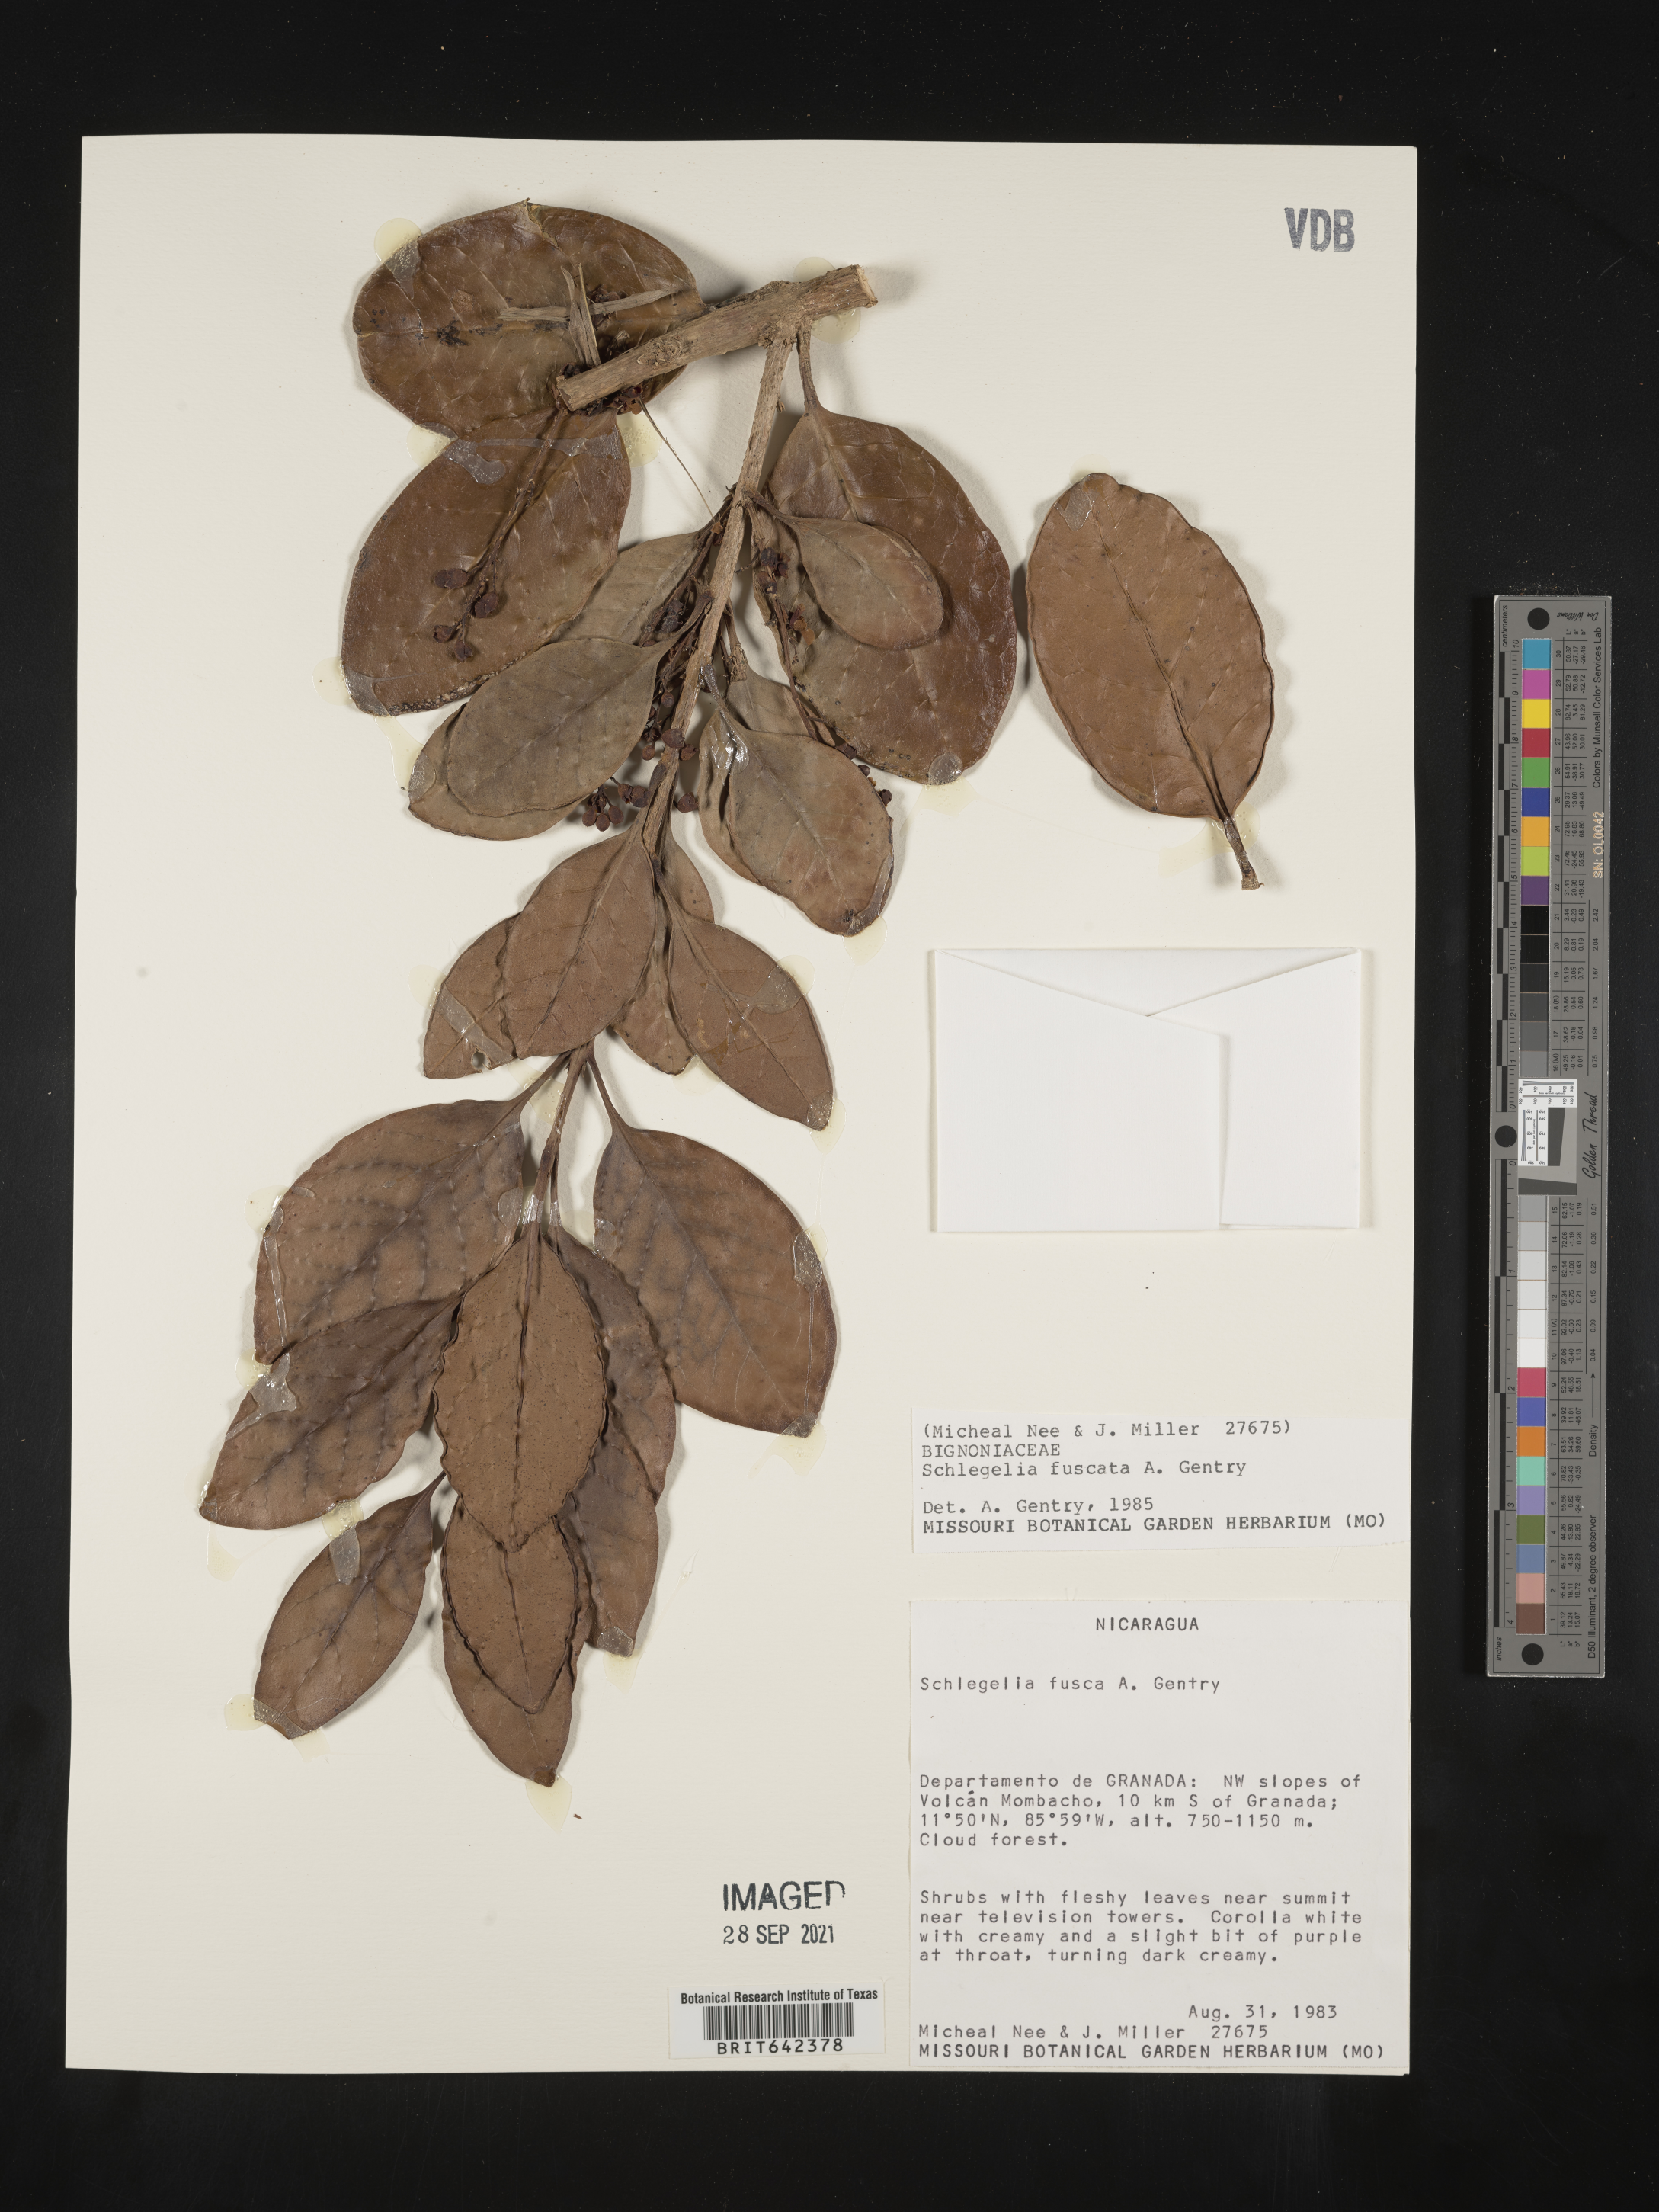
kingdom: Plantae
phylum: Tracheophyta
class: Magnoliopsida
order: Lamiales
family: Schlegeliaceae
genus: Schlegelia
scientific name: Schlegelia
